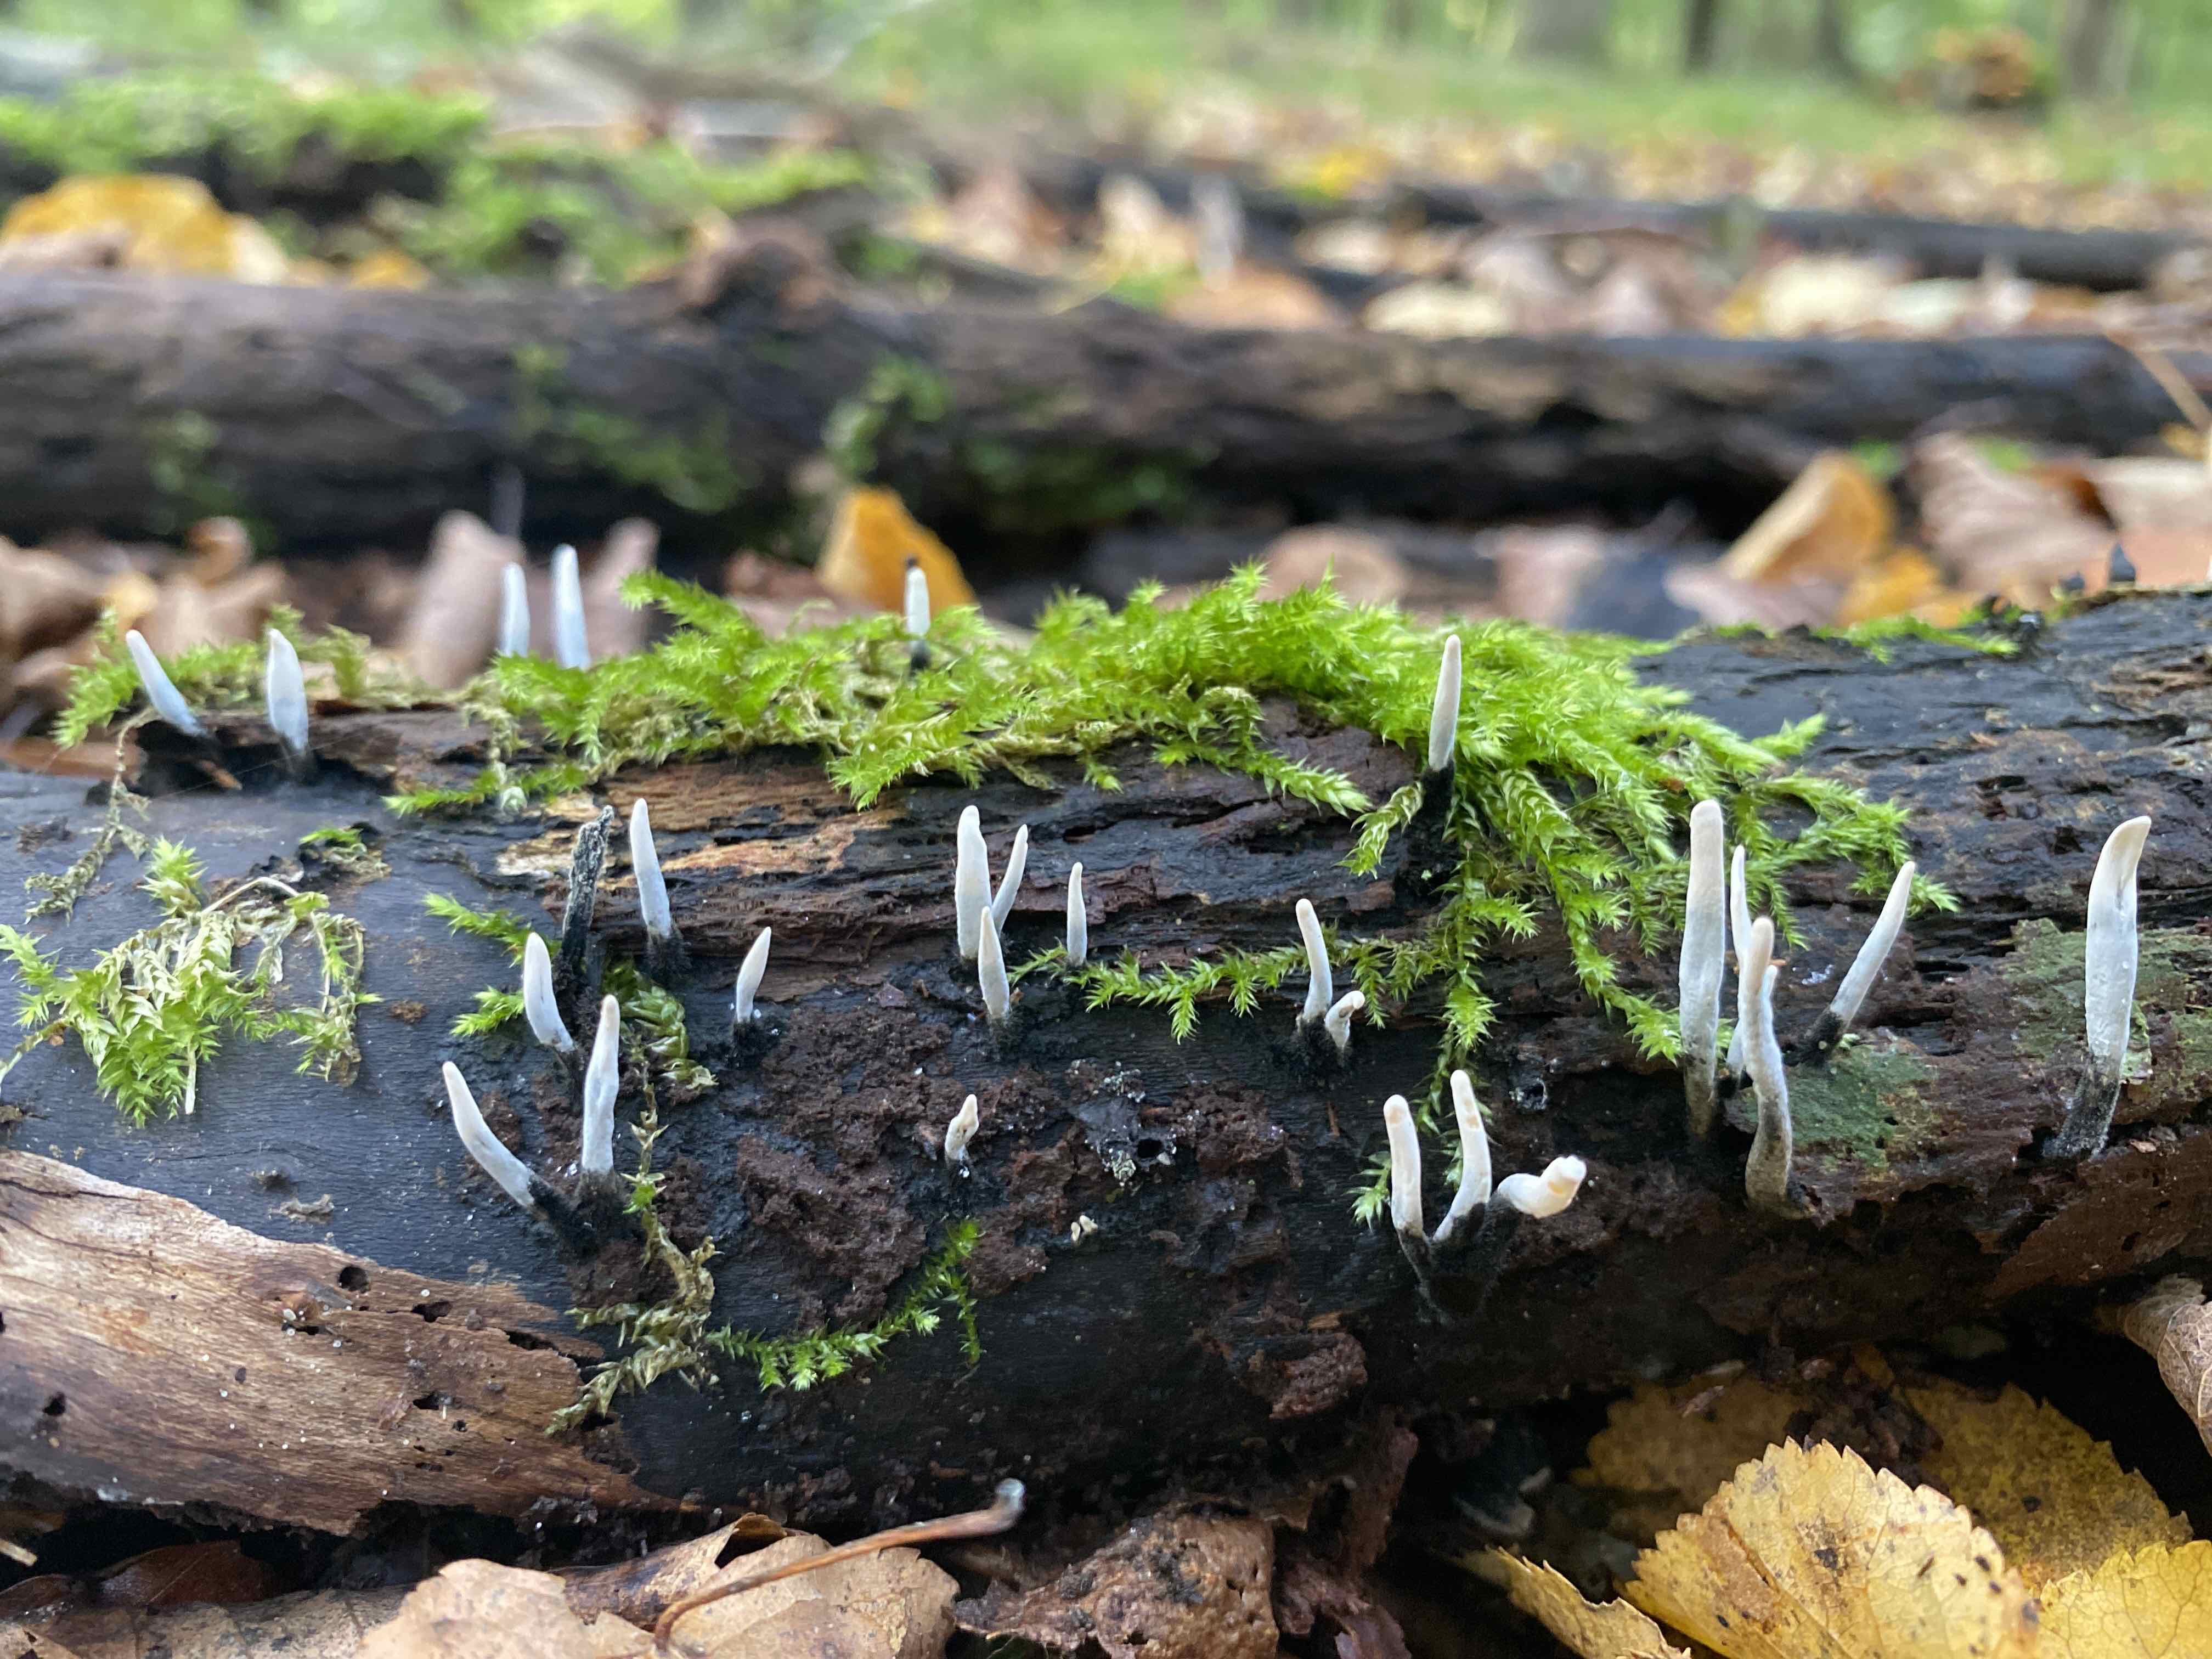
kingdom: Fungi
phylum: Ascomycota
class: Sordariomycetes
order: Xylariales
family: Xylariaceae
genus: Xylaria
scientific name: Xylaria hypoxylon
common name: grenet stødsvamp
